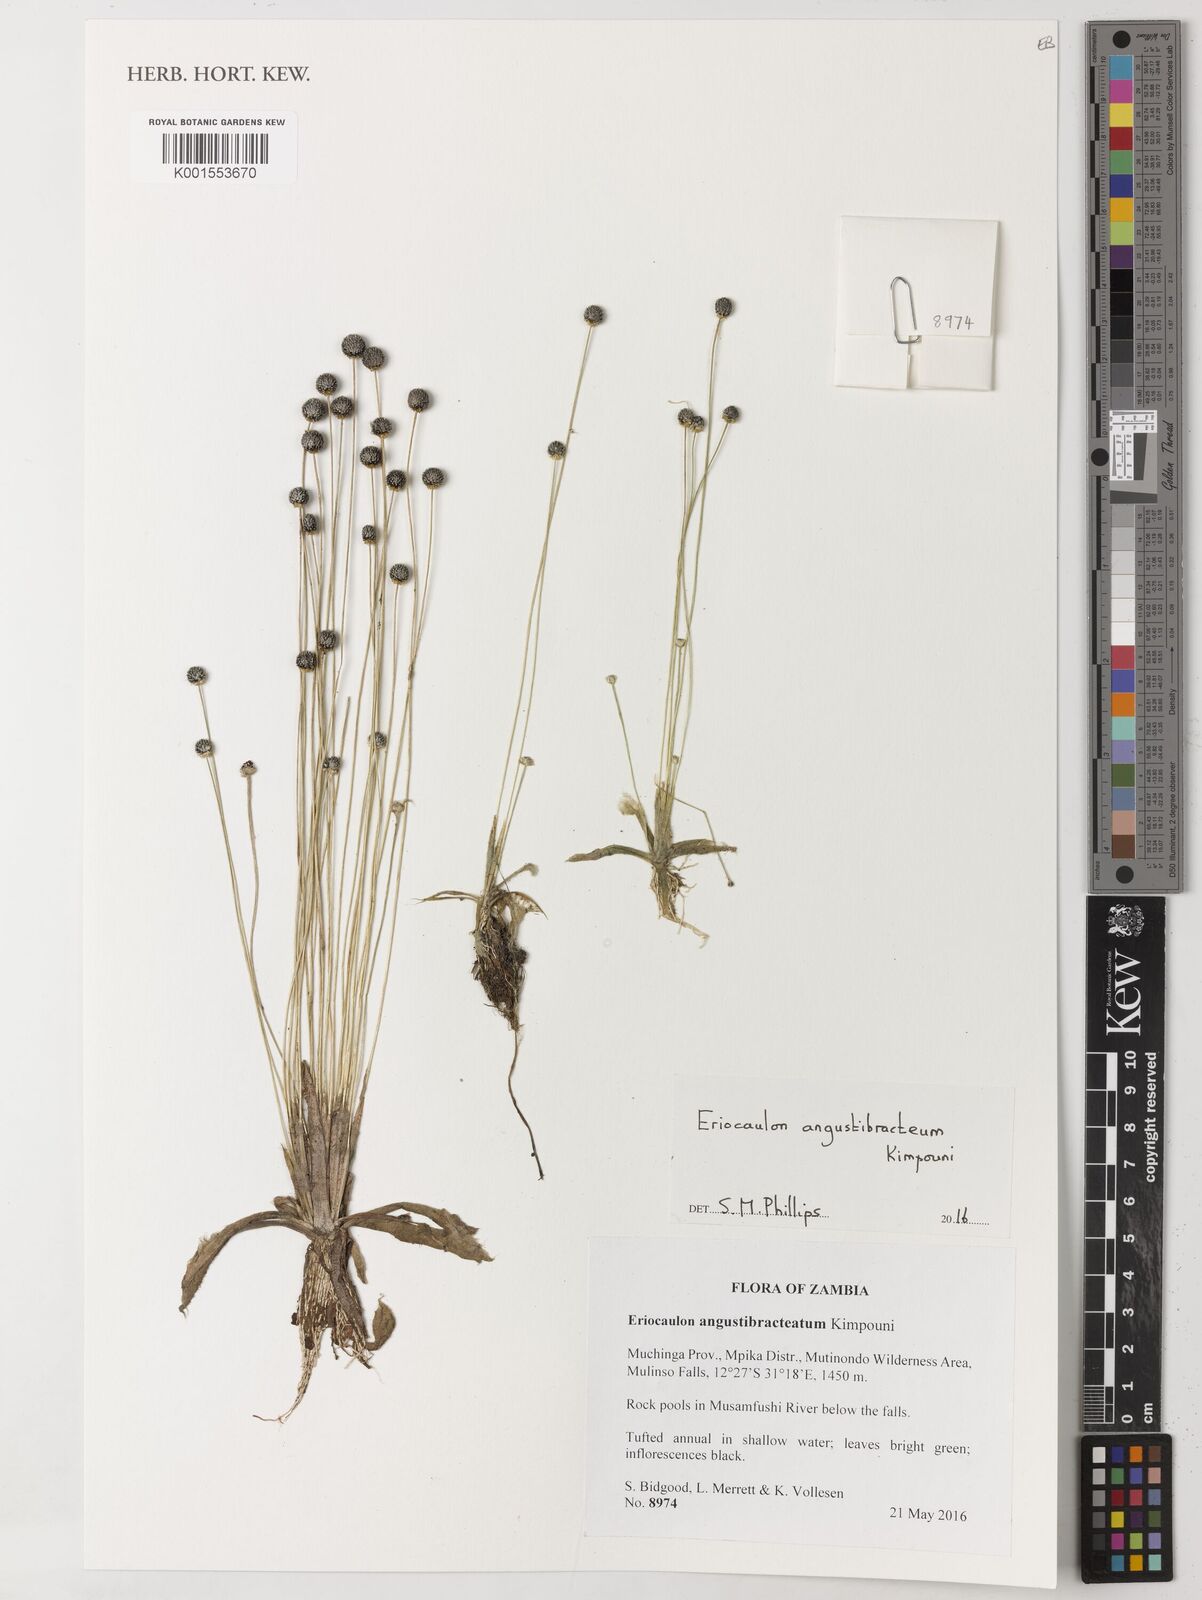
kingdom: Plantae
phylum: Tracheophyta
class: Liliopsida
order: Poales
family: Eriocaulaceae
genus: Eriocaulon
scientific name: Eriocaulon angustibracteum
